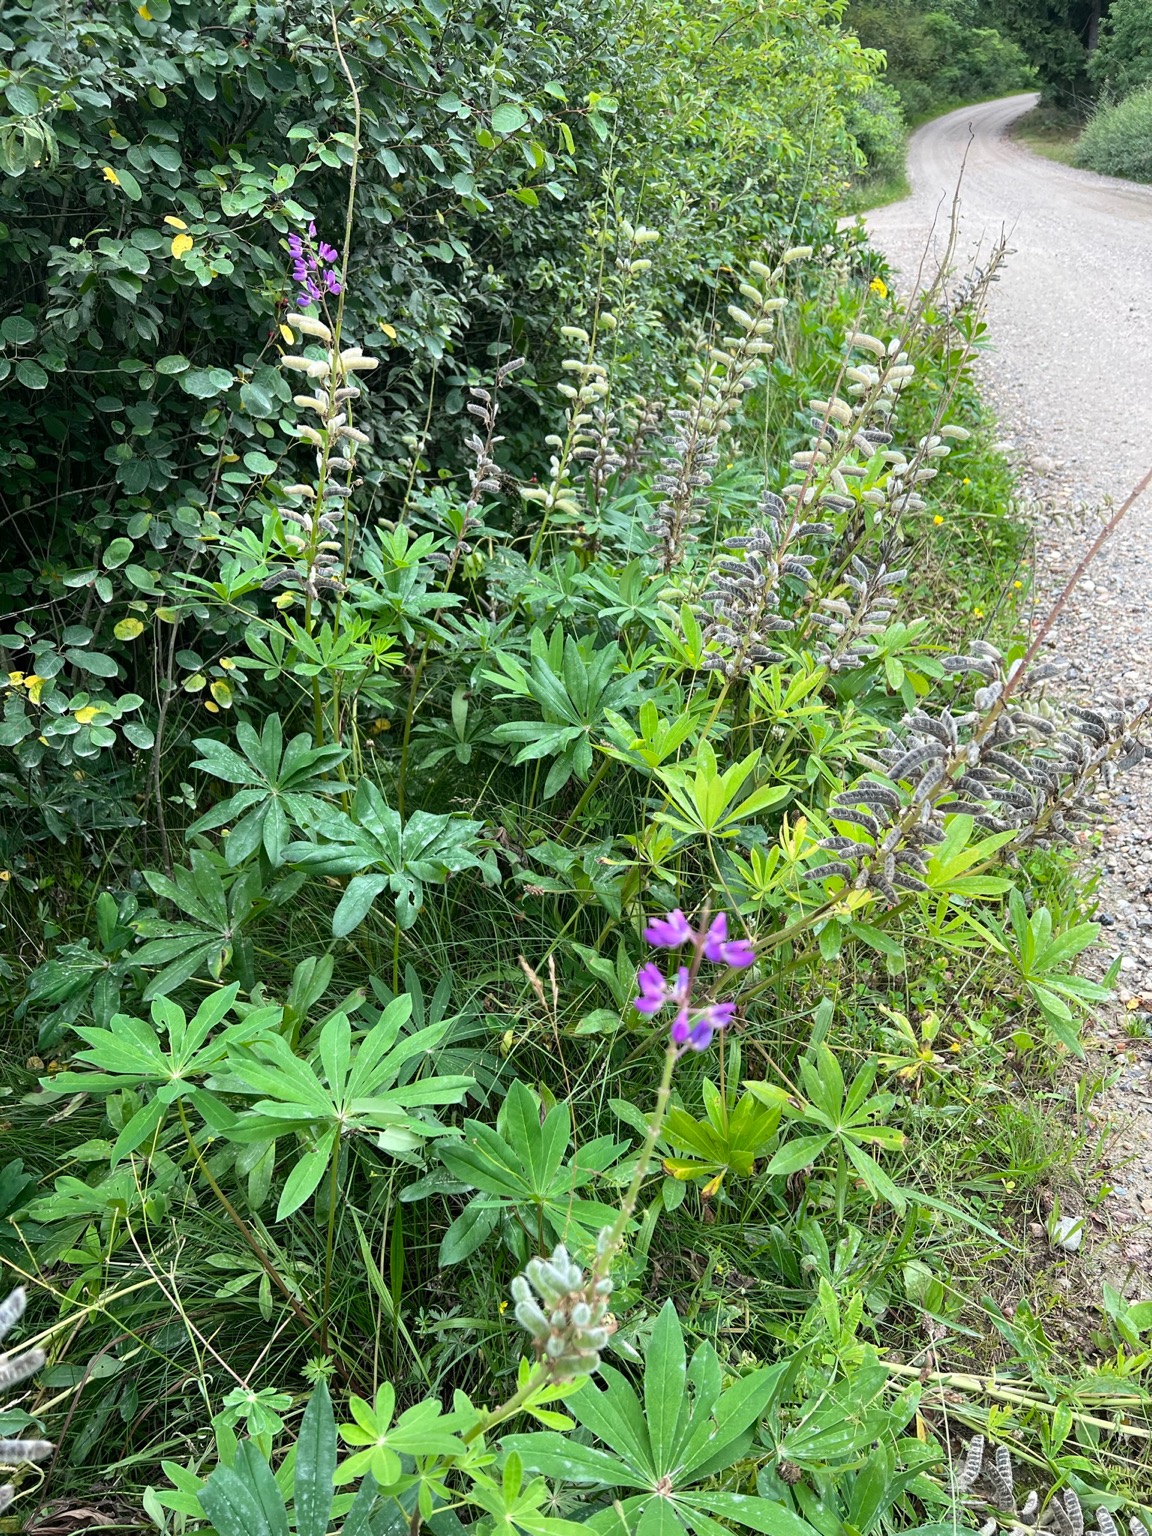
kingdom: Plantae
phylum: Tracheophyta
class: Magnoliopsida
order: Fabales
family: Fabaceae
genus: Lupinus
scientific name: Lupinus polyphyllus
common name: Mangebladet lupin
